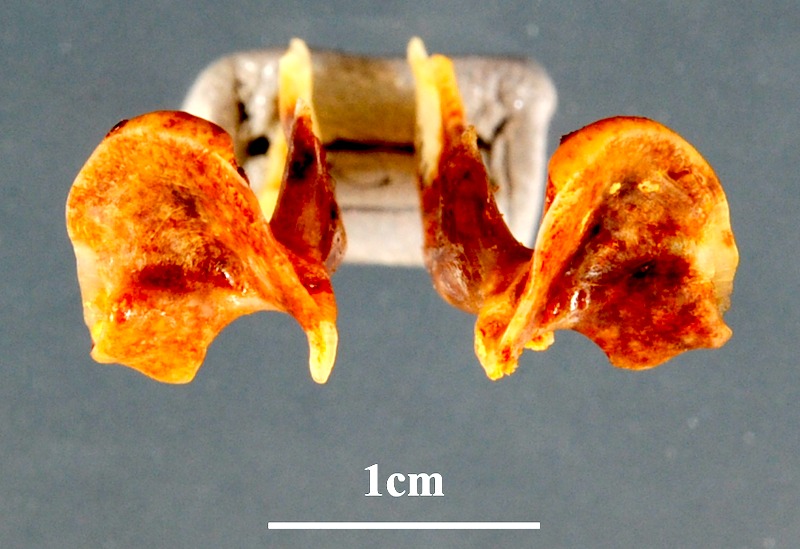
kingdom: Animalia
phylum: Chordata
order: Perciformes
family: Sciaenidae
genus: Umbrina
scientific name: Umbrina cirrosa
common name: Shi drum
